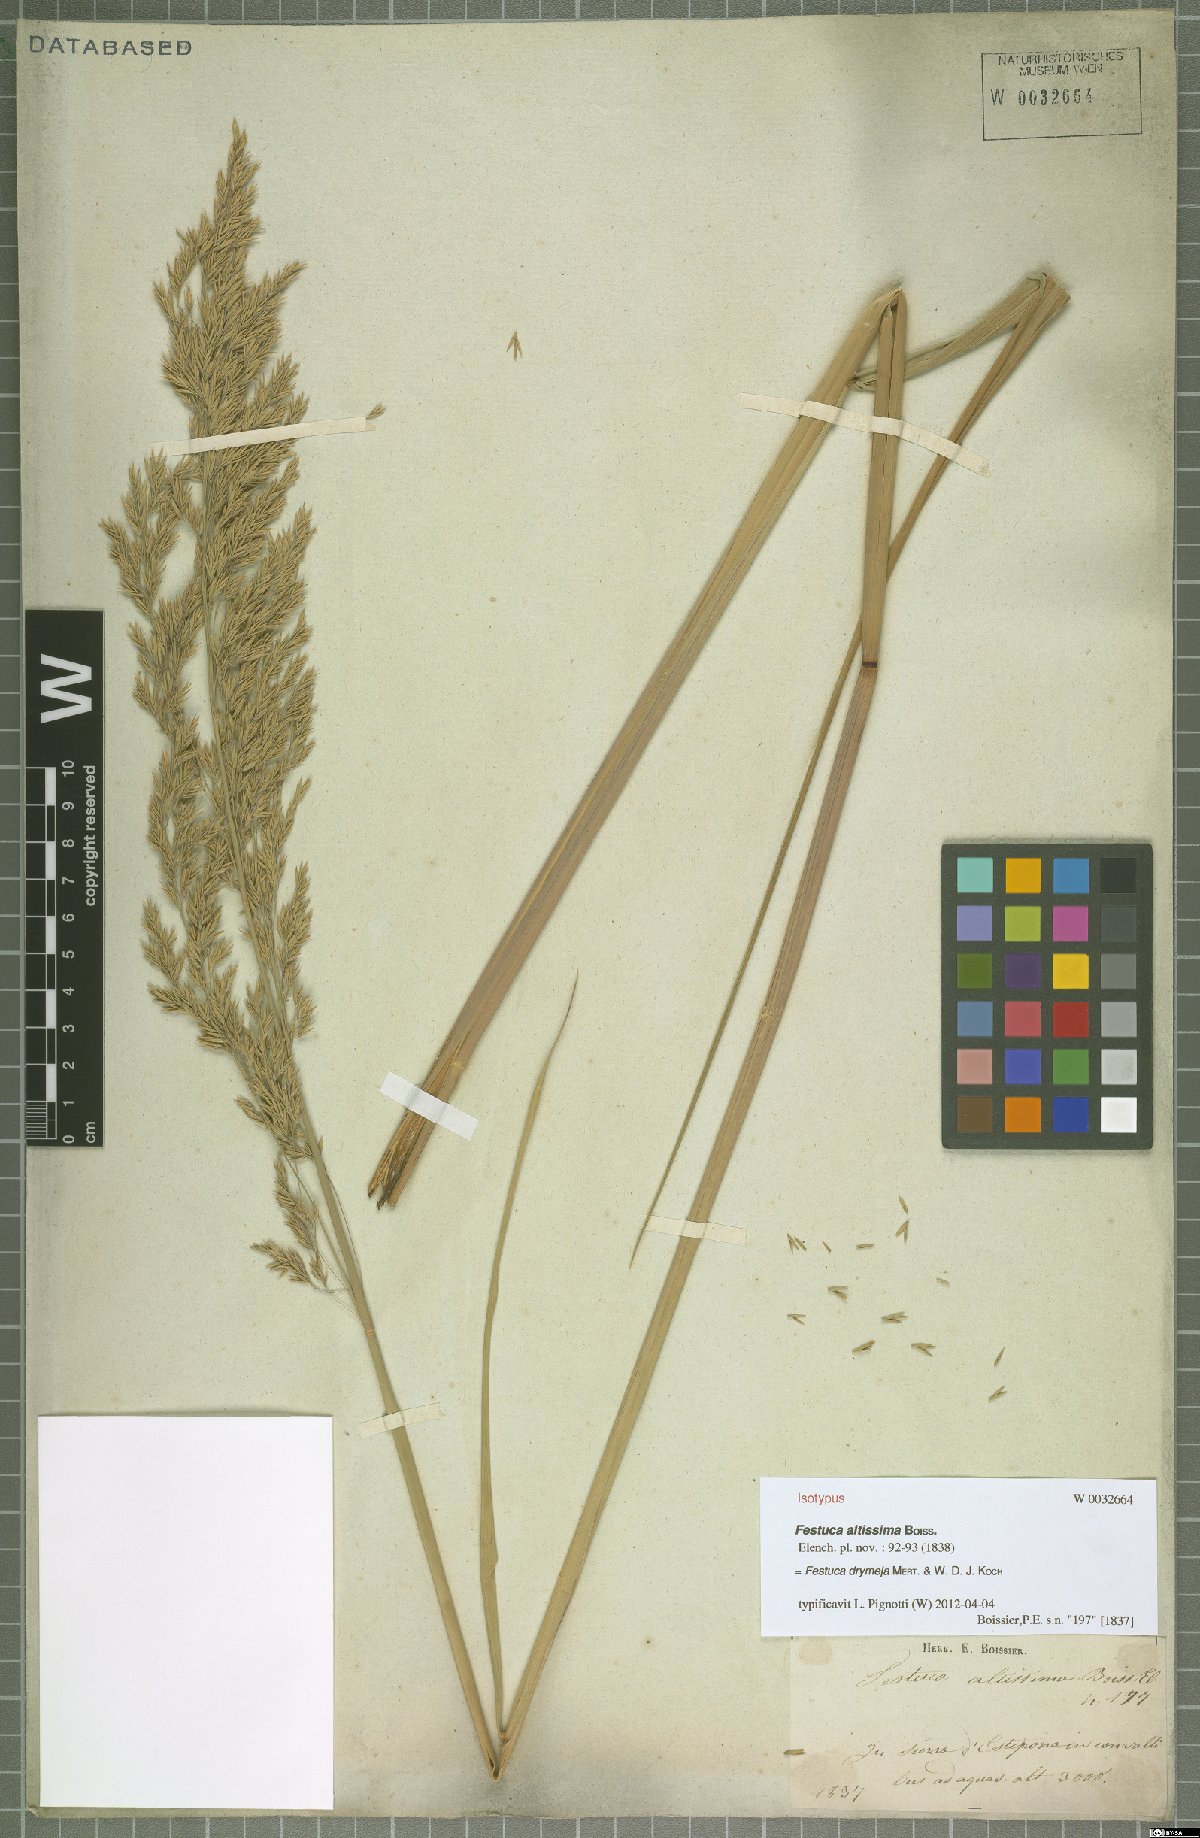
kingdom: Plantae
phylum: Tracheophyta
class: Liliopsida
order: Poales
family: Poaceae
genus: Festuca
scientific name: Festuca drymeja
